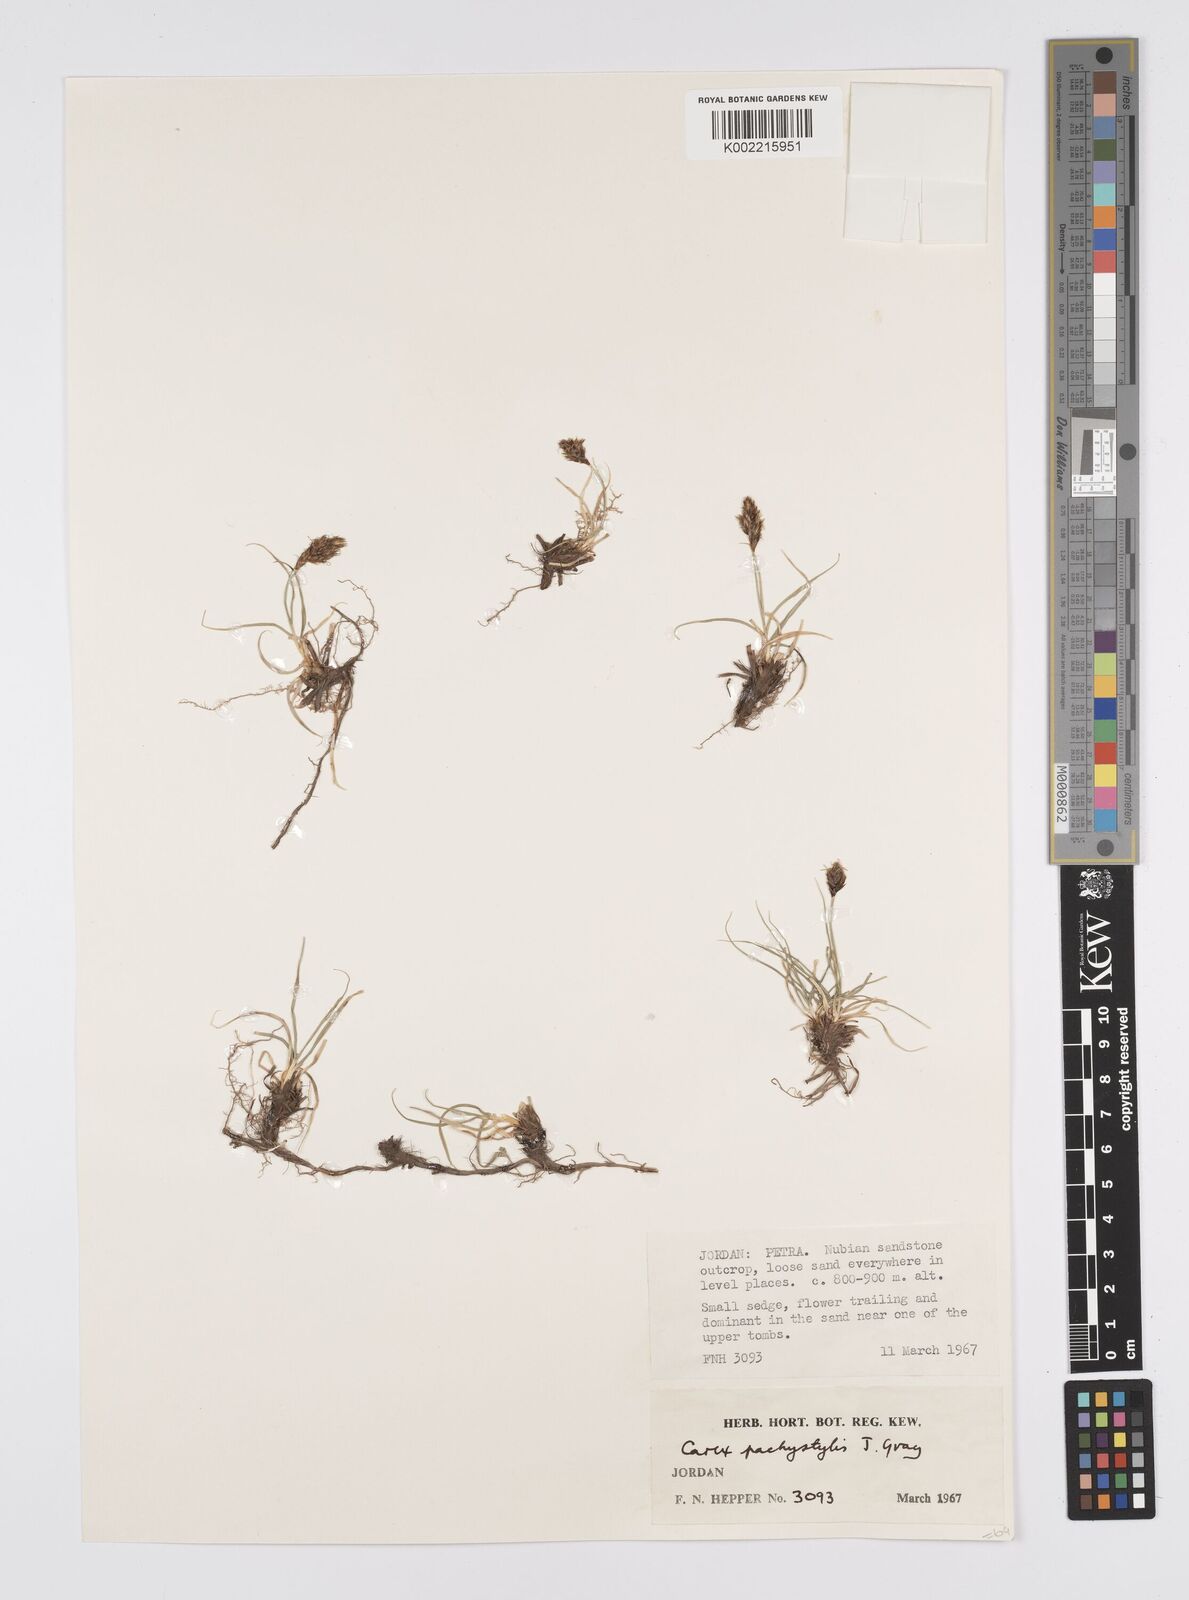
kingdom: Plantae
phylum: Tracheophyta
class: Liliopsida
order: Poales
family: Cyperaceae
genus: Carex
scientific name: Carex pachystylis
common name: Thick-stem sedge
